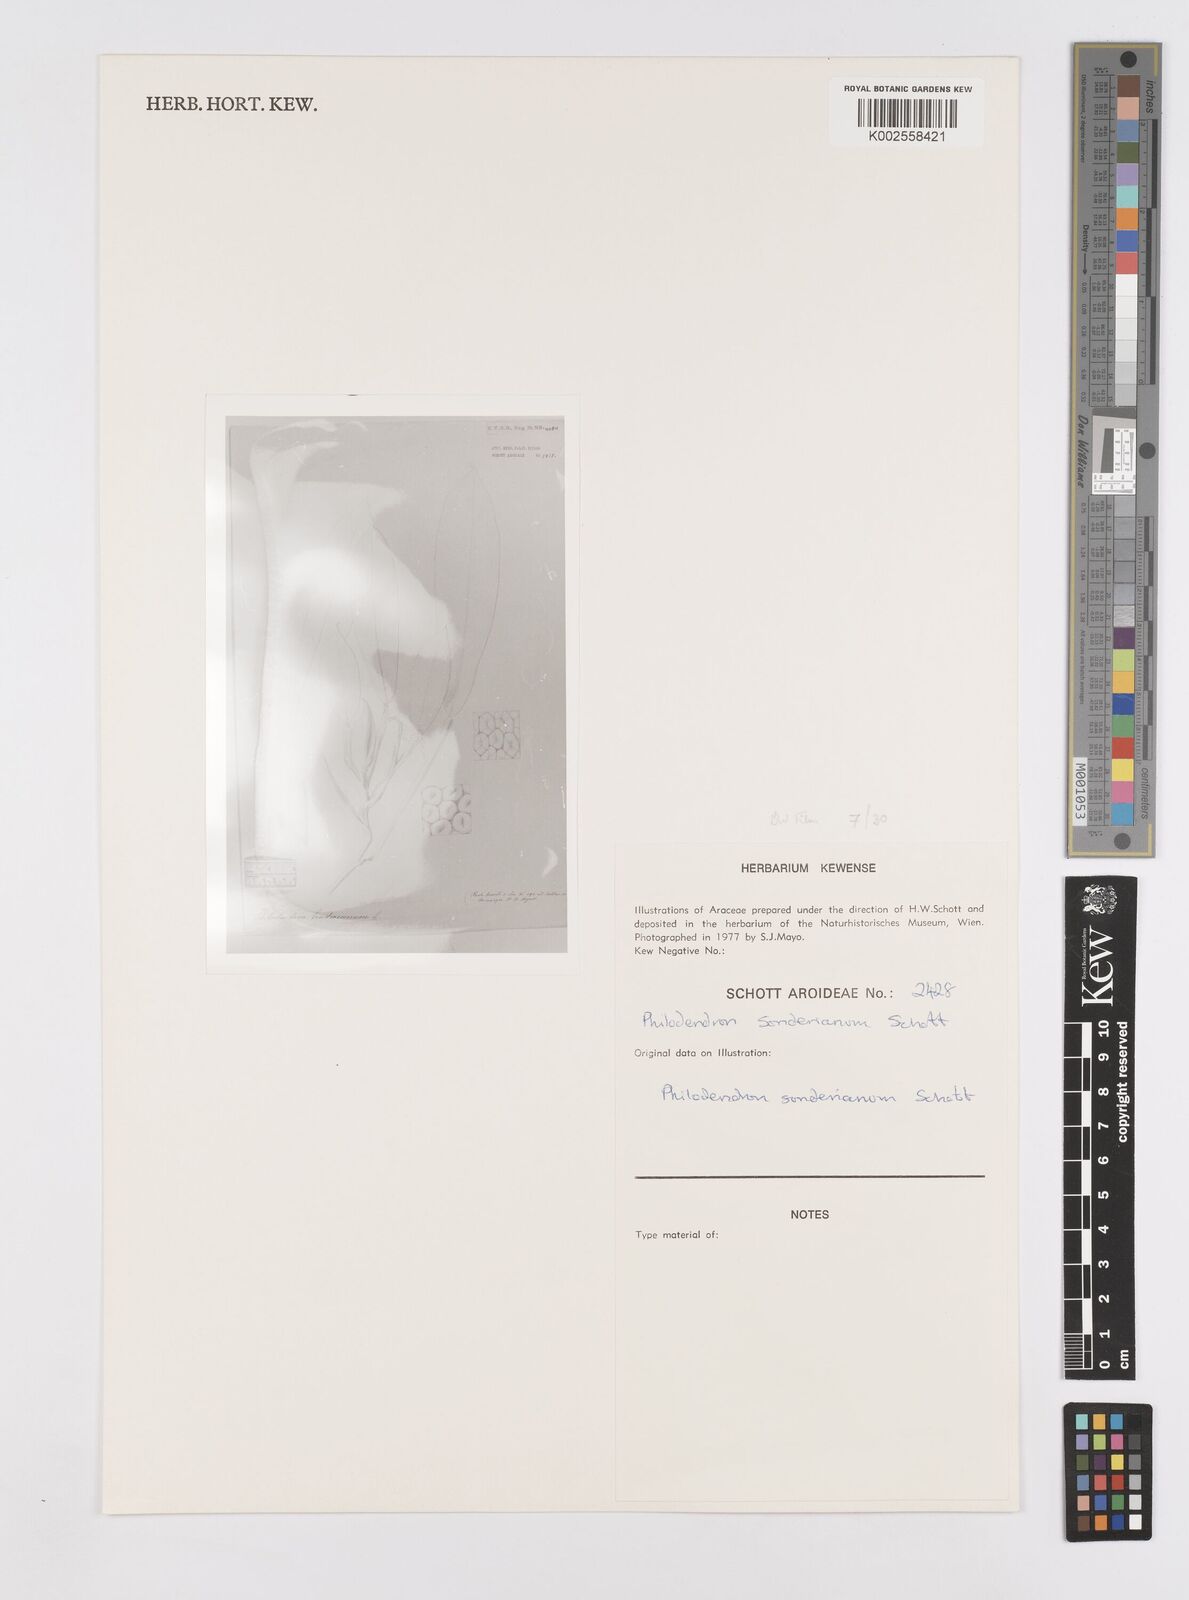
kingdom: Plantae
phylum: Tracheophyta
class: Liliopsida
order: Alismatales
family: Araceae
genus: Philodendron
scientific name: Philodendron sonderianum
